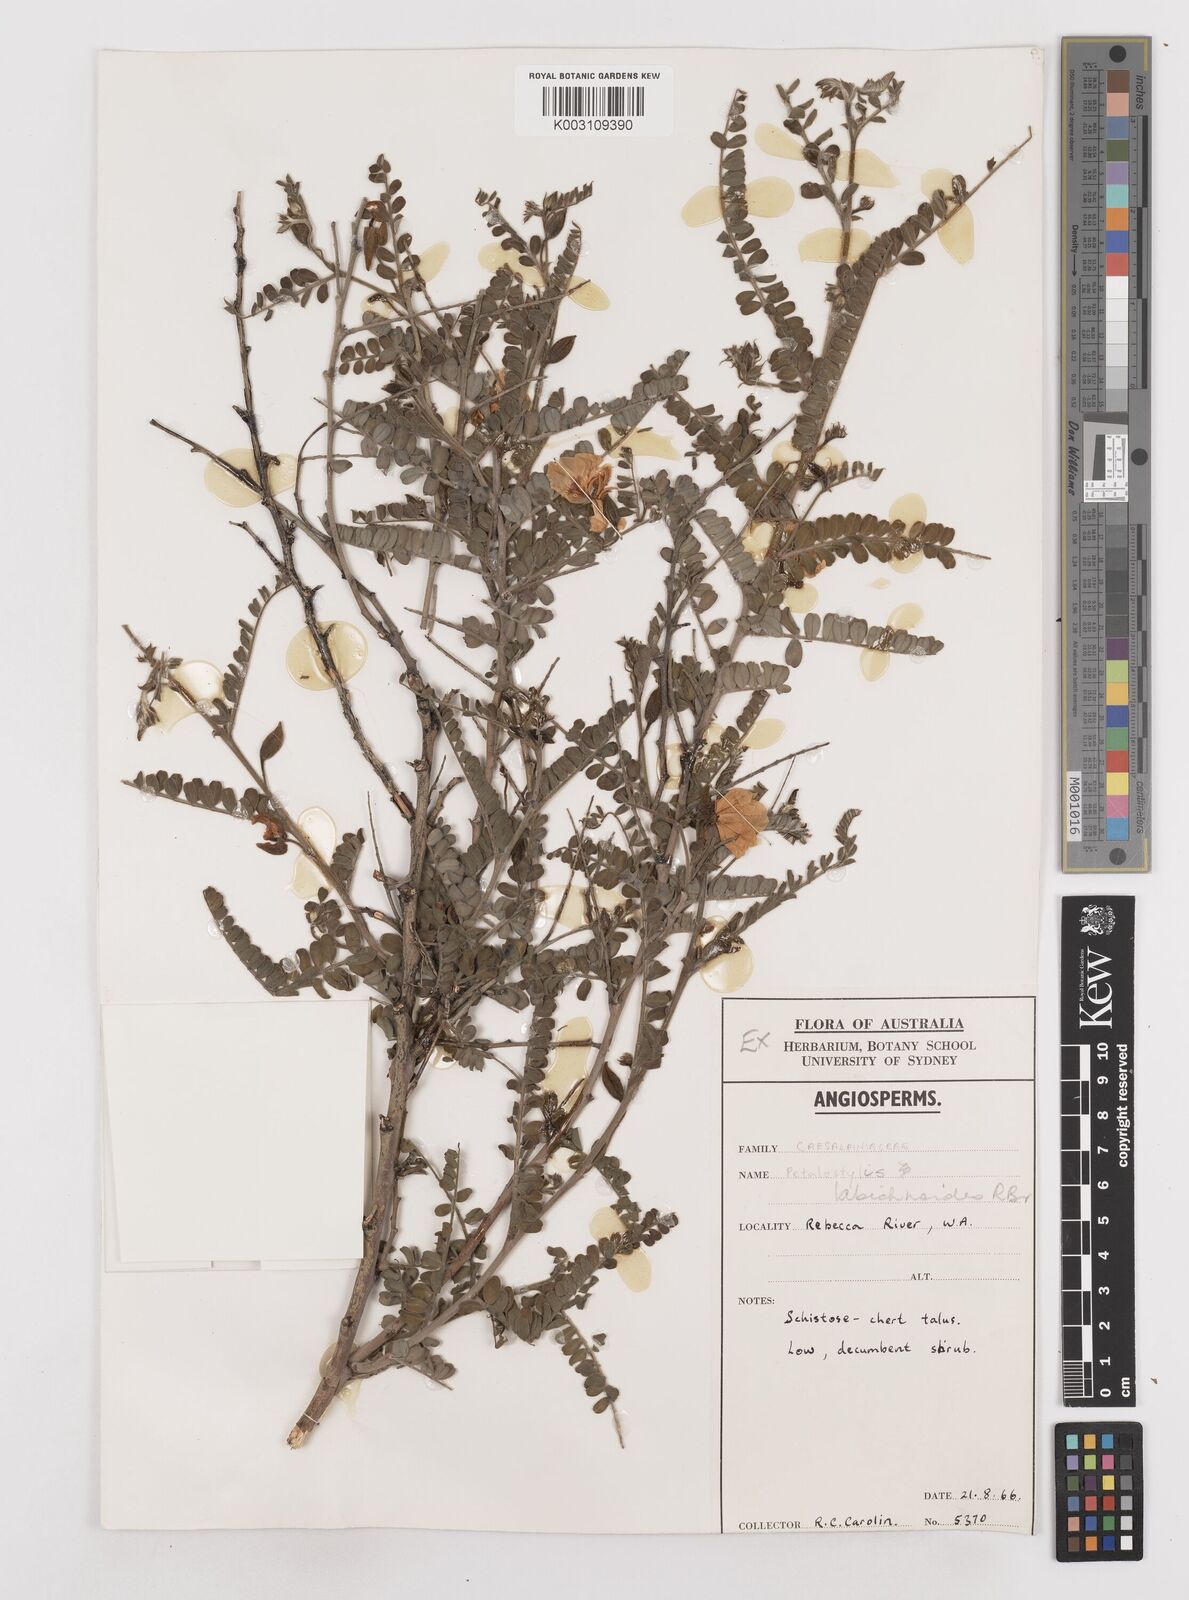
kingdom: Plantae
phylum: Tracheophyta
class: Magnoliopsida
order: Fabales
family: Fabaceae
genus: Petalostylis
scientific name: Petalostylis labicheoides
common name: Butterfly bush
